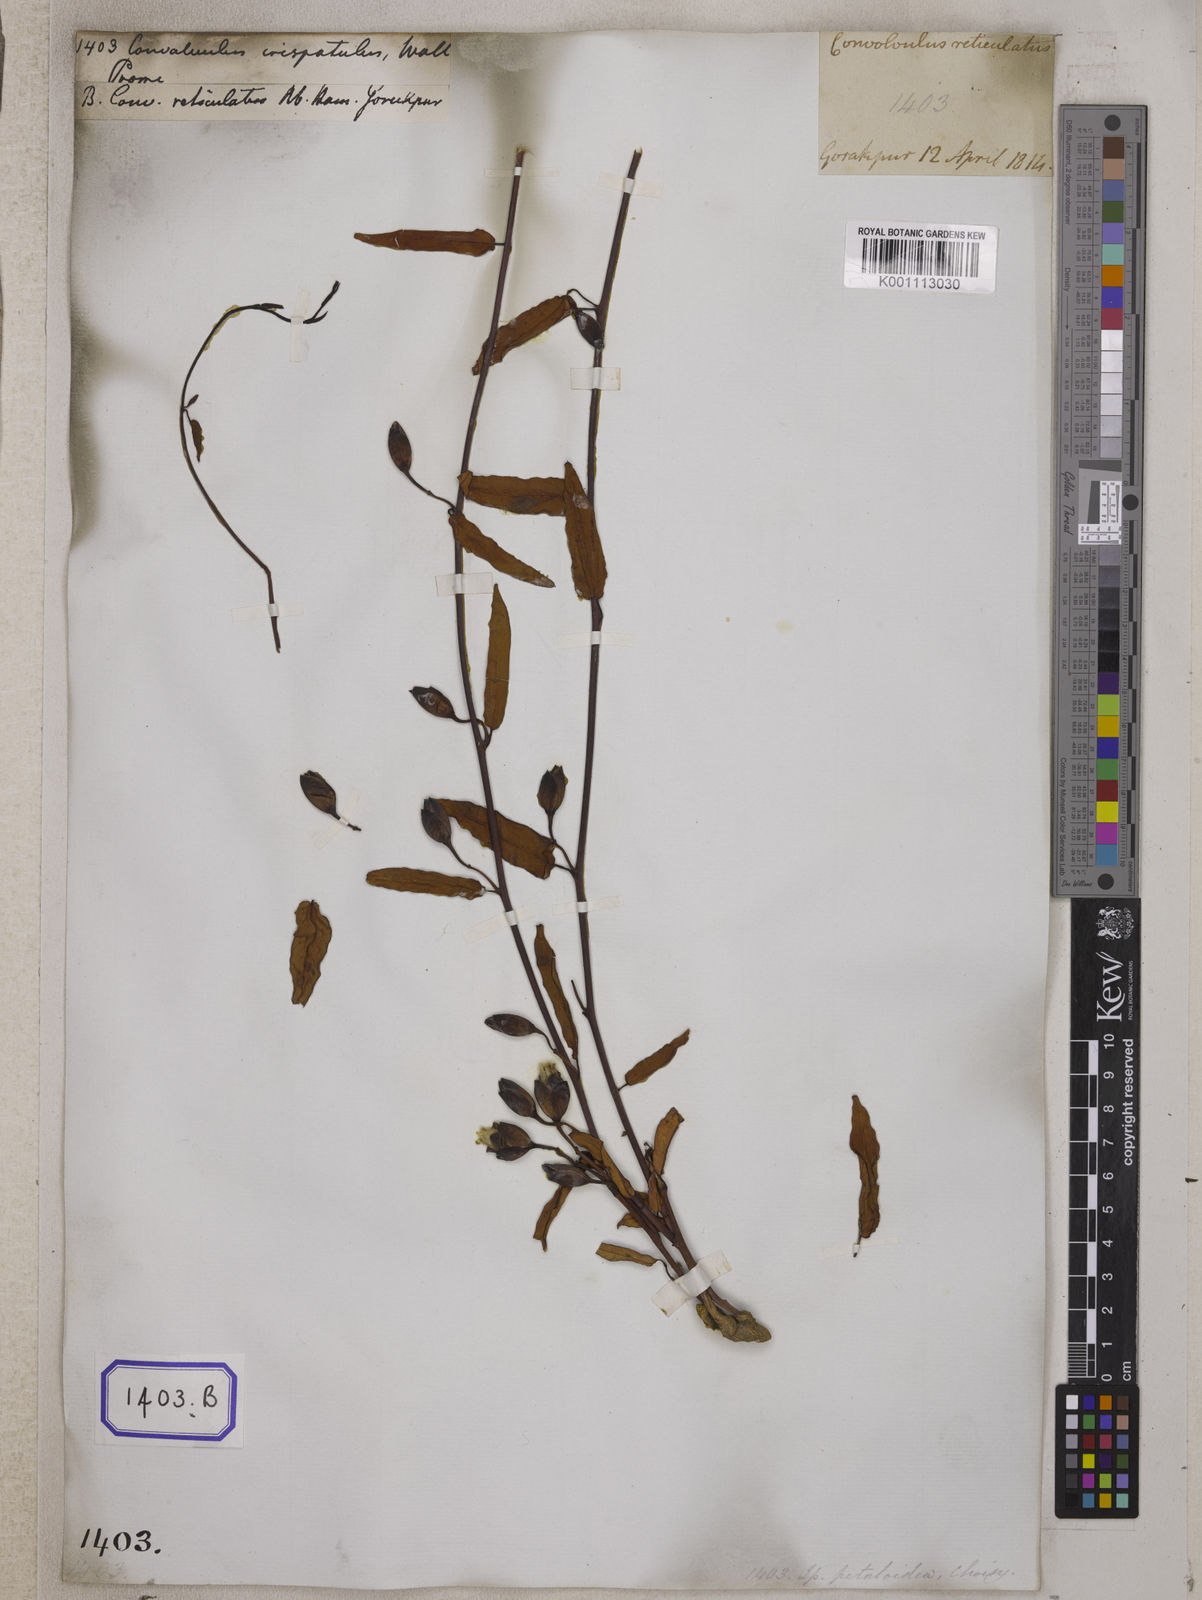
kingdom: Plantae
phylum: Tracheophyta
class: Magnoliopsida
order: Solanales
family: Convolvulaceae
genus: Operculina
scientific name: Operculina petaloidea
